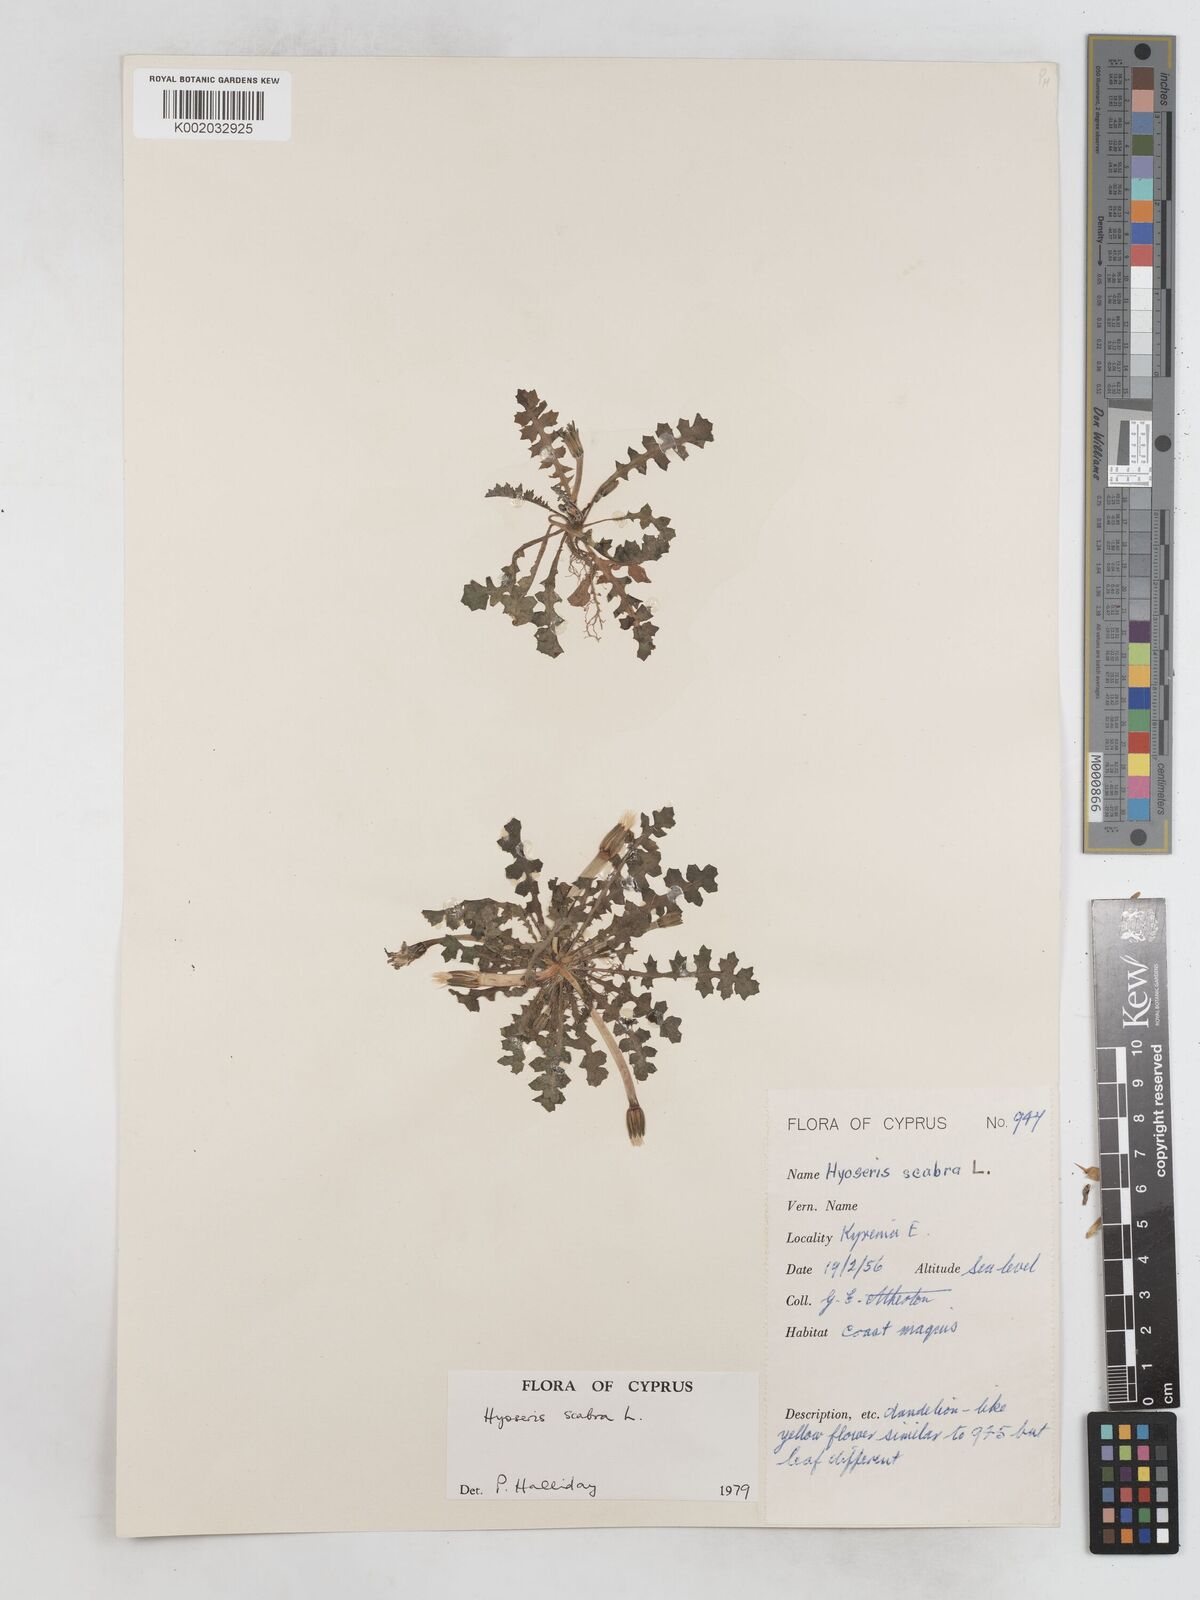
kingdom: Plantae
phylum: Tracheophyta
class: Magnoliopsida
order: Asterales
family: Asteraceae
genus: Hyoseris
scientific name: Hyoseris scabra
